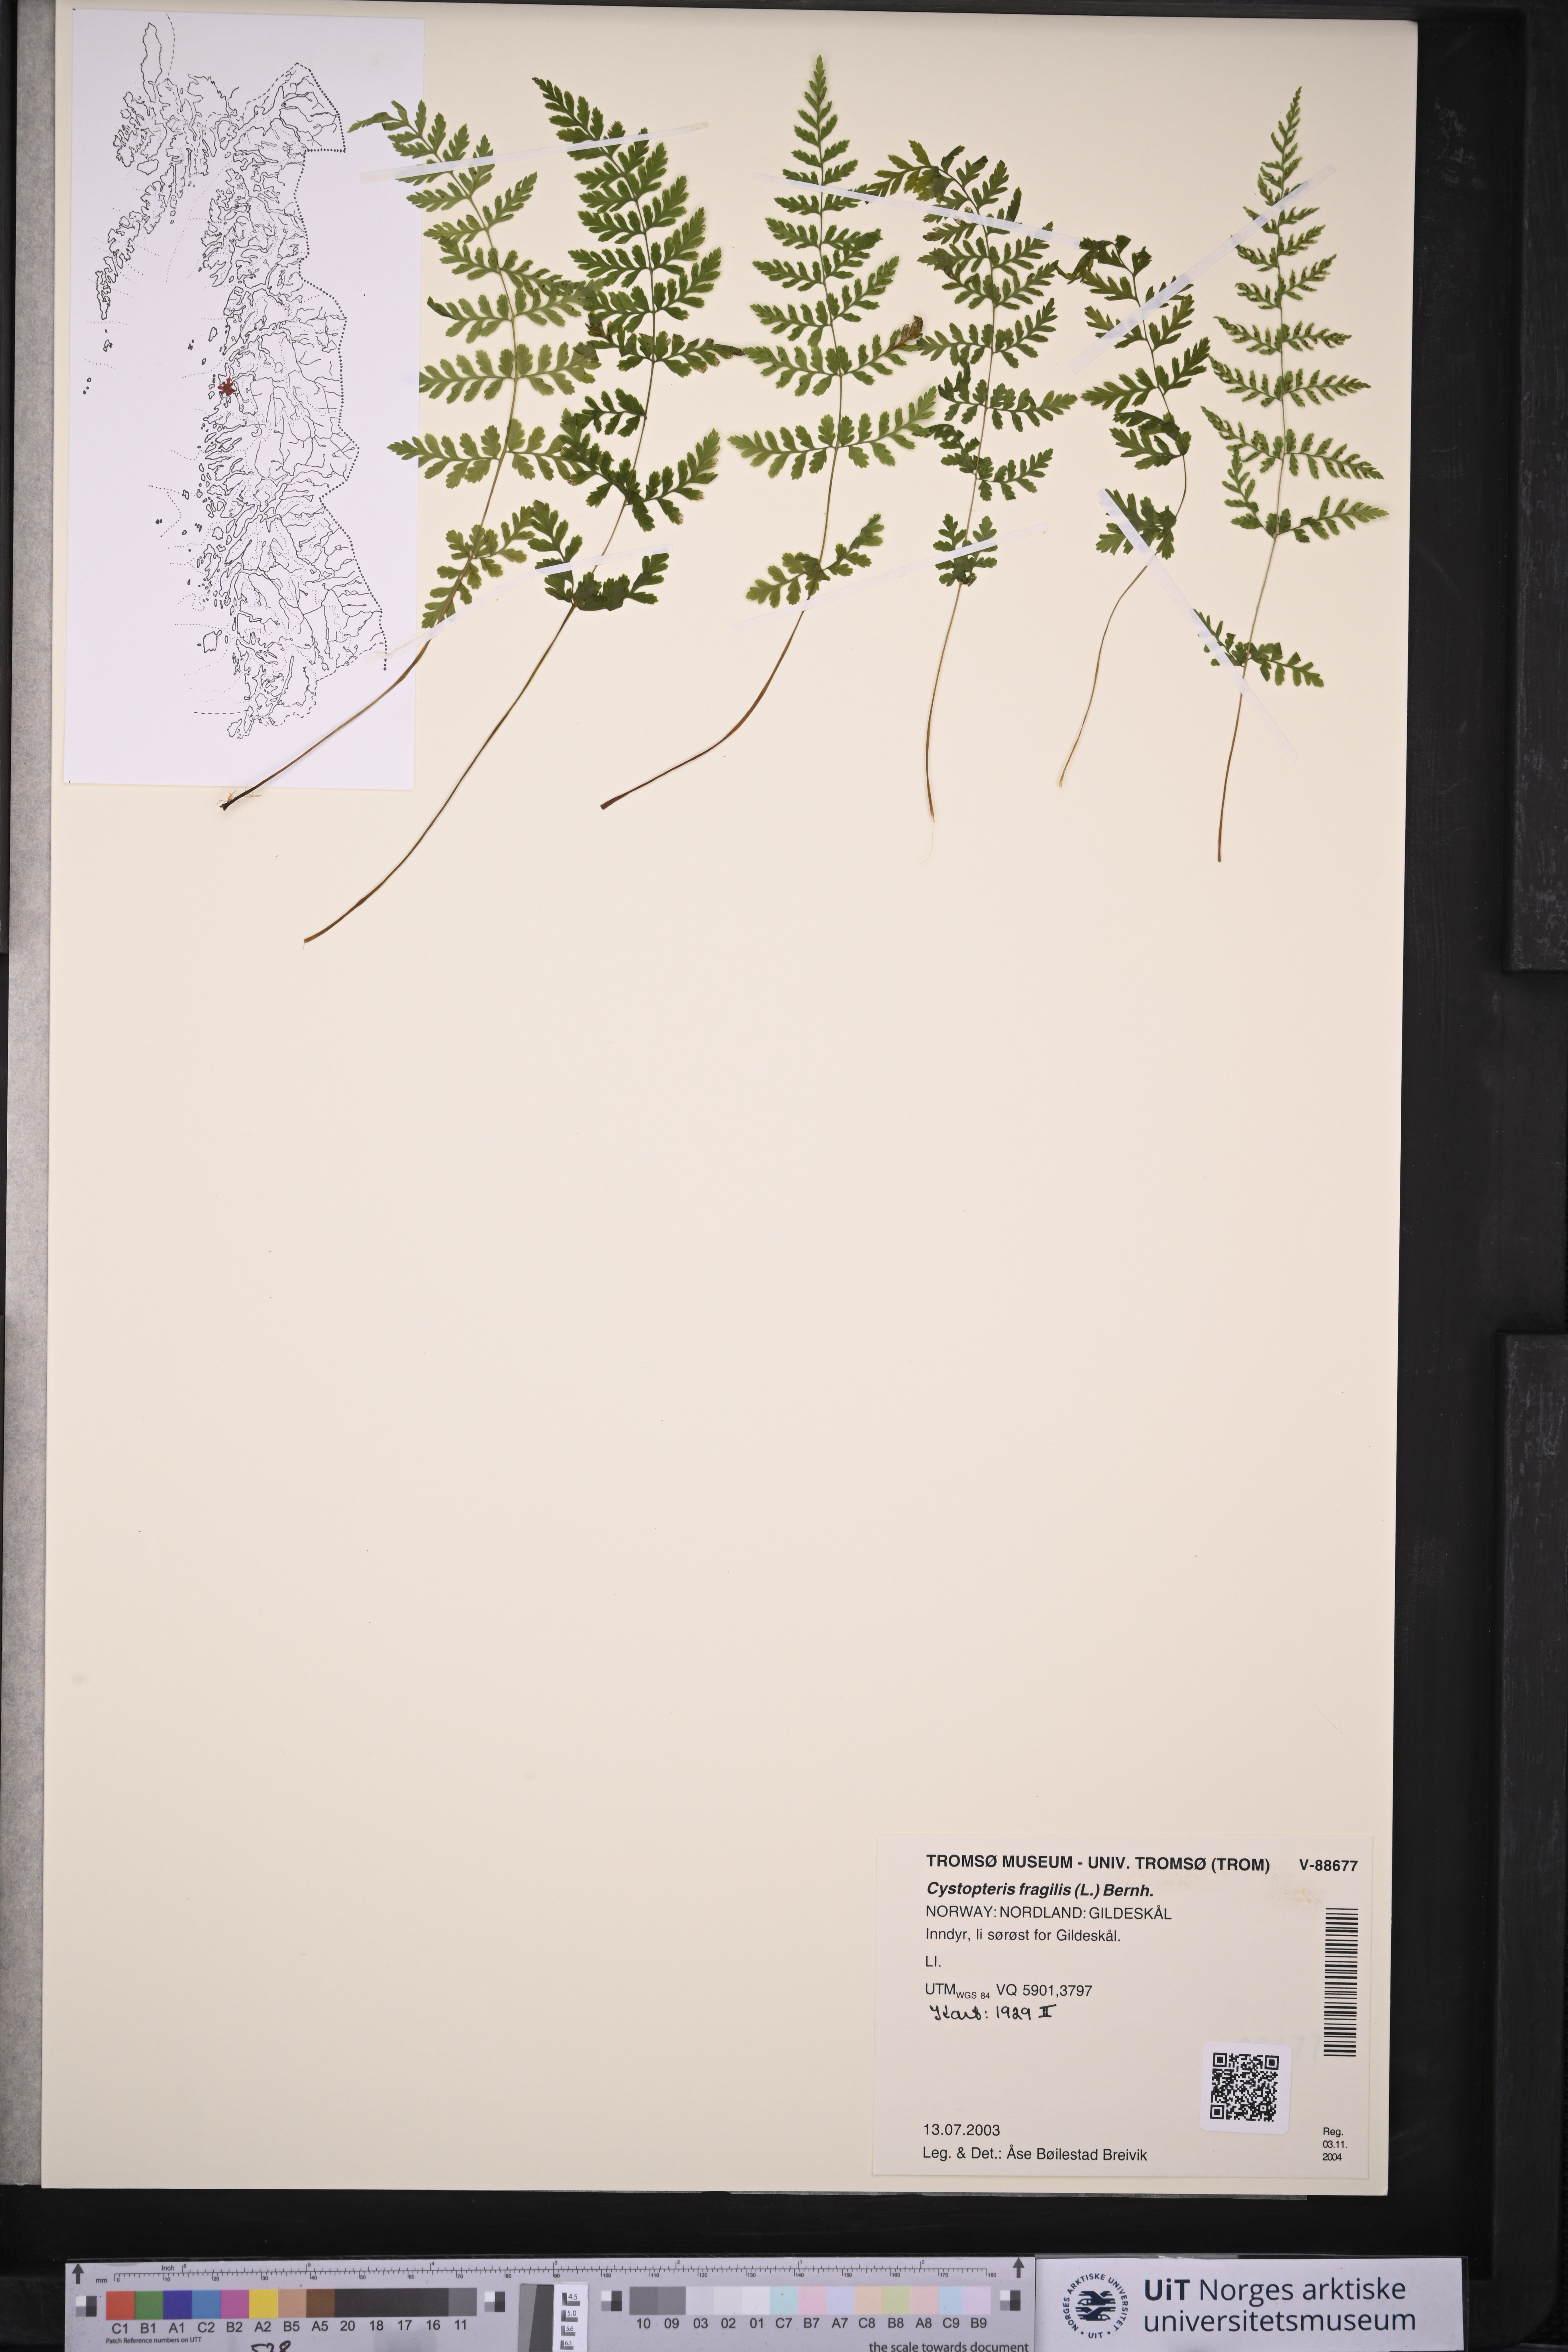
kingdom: Plantae
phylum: Tracheophyta
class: Polypodiopsida
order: Polypodiales
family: Cystopteridaceae
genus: Cystopteris
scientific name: Cystopteris fragilis
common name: Brittle bladder fern
